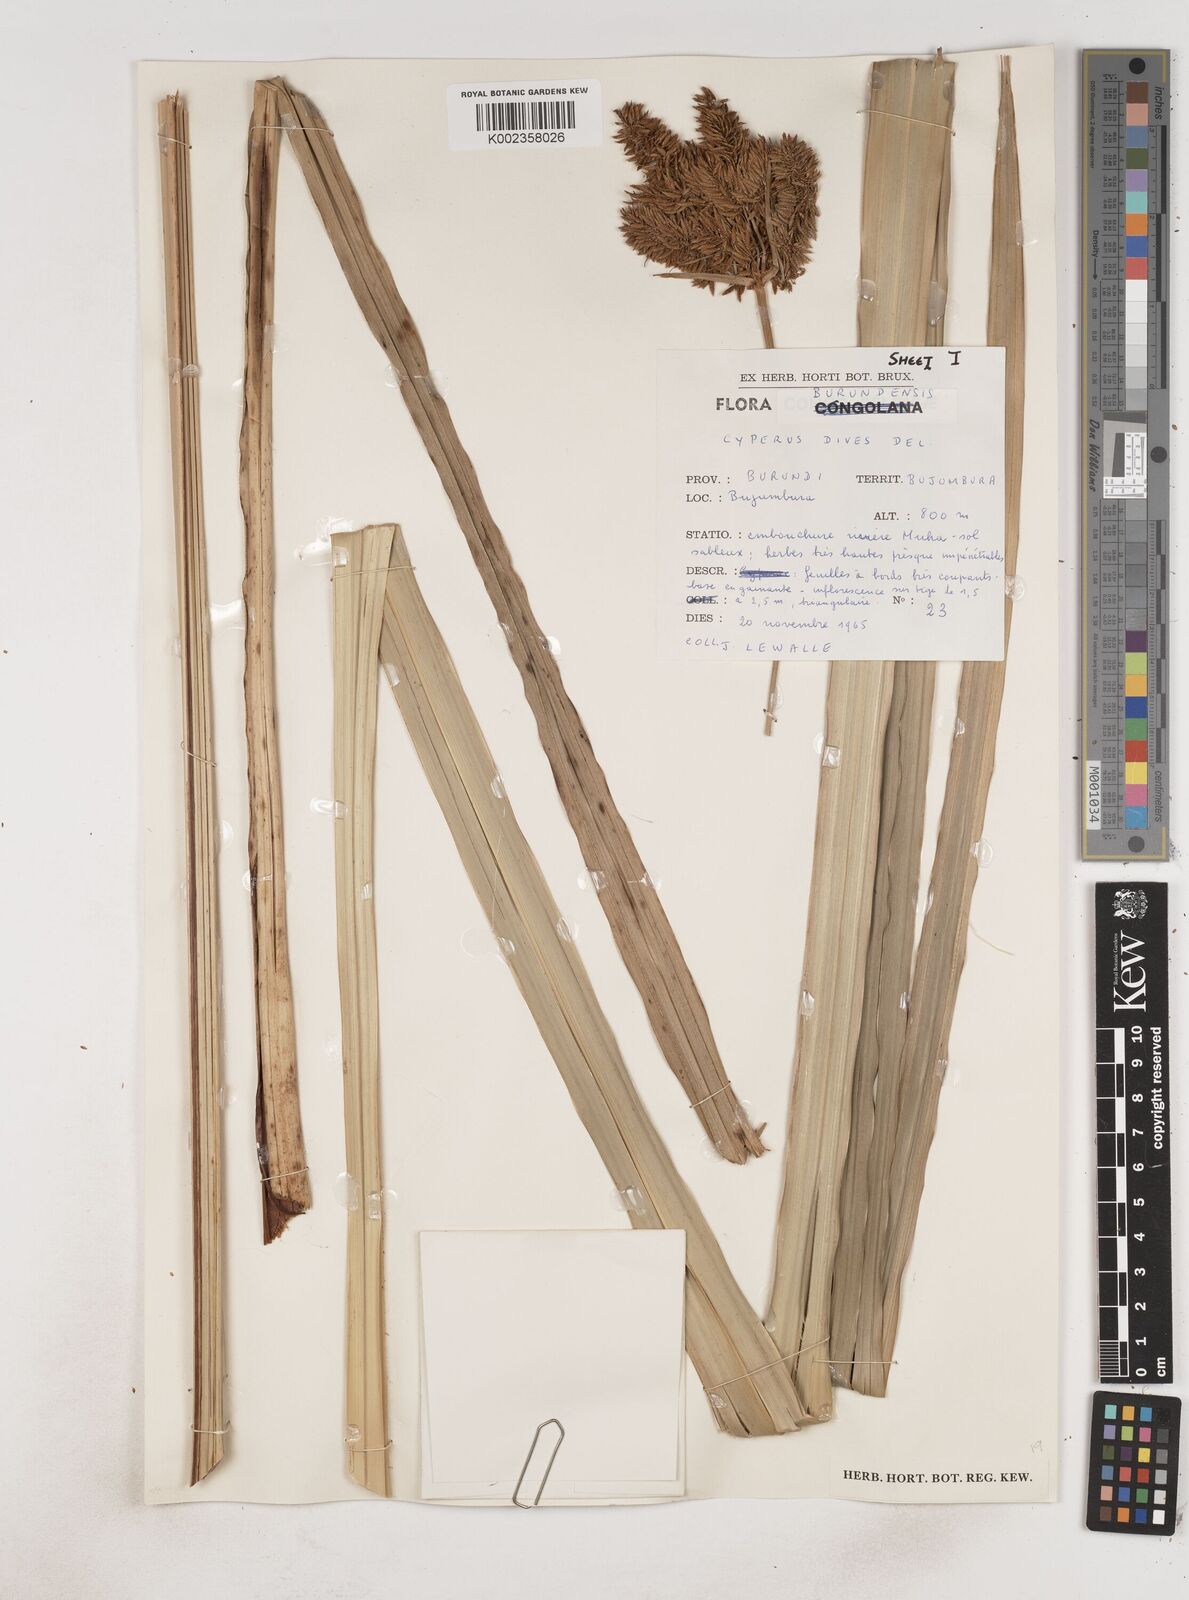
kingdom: Plantae
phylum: Tracheophyta
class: Liliopsida
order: Poales
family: Cyperaceae
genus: Cyperus
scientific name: Cyperus dives
